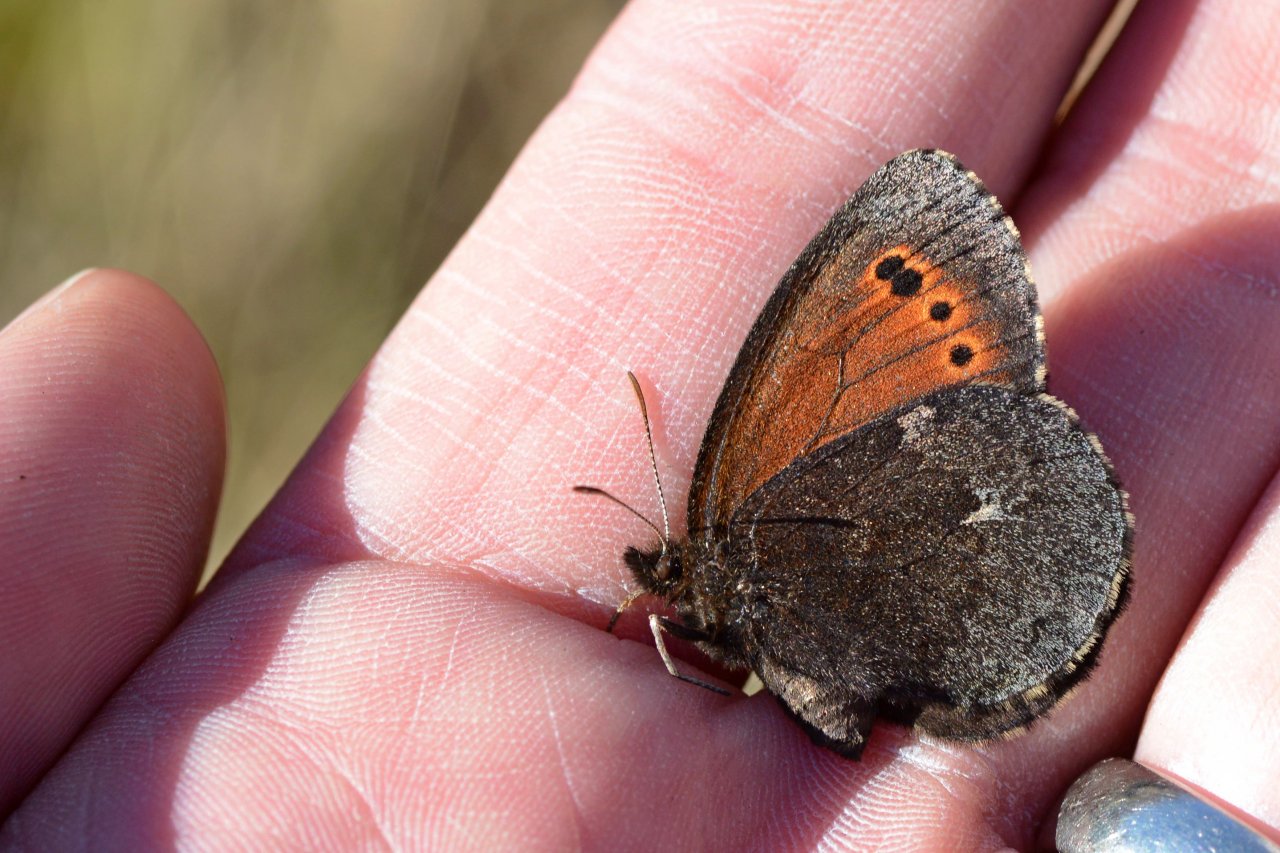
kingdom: Animalia
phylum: Arthropoda
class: Insecta
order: Lepidoptera
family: Nymphalidae
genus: Erebia
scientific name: Erebia disa
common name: Taiga Alpine
